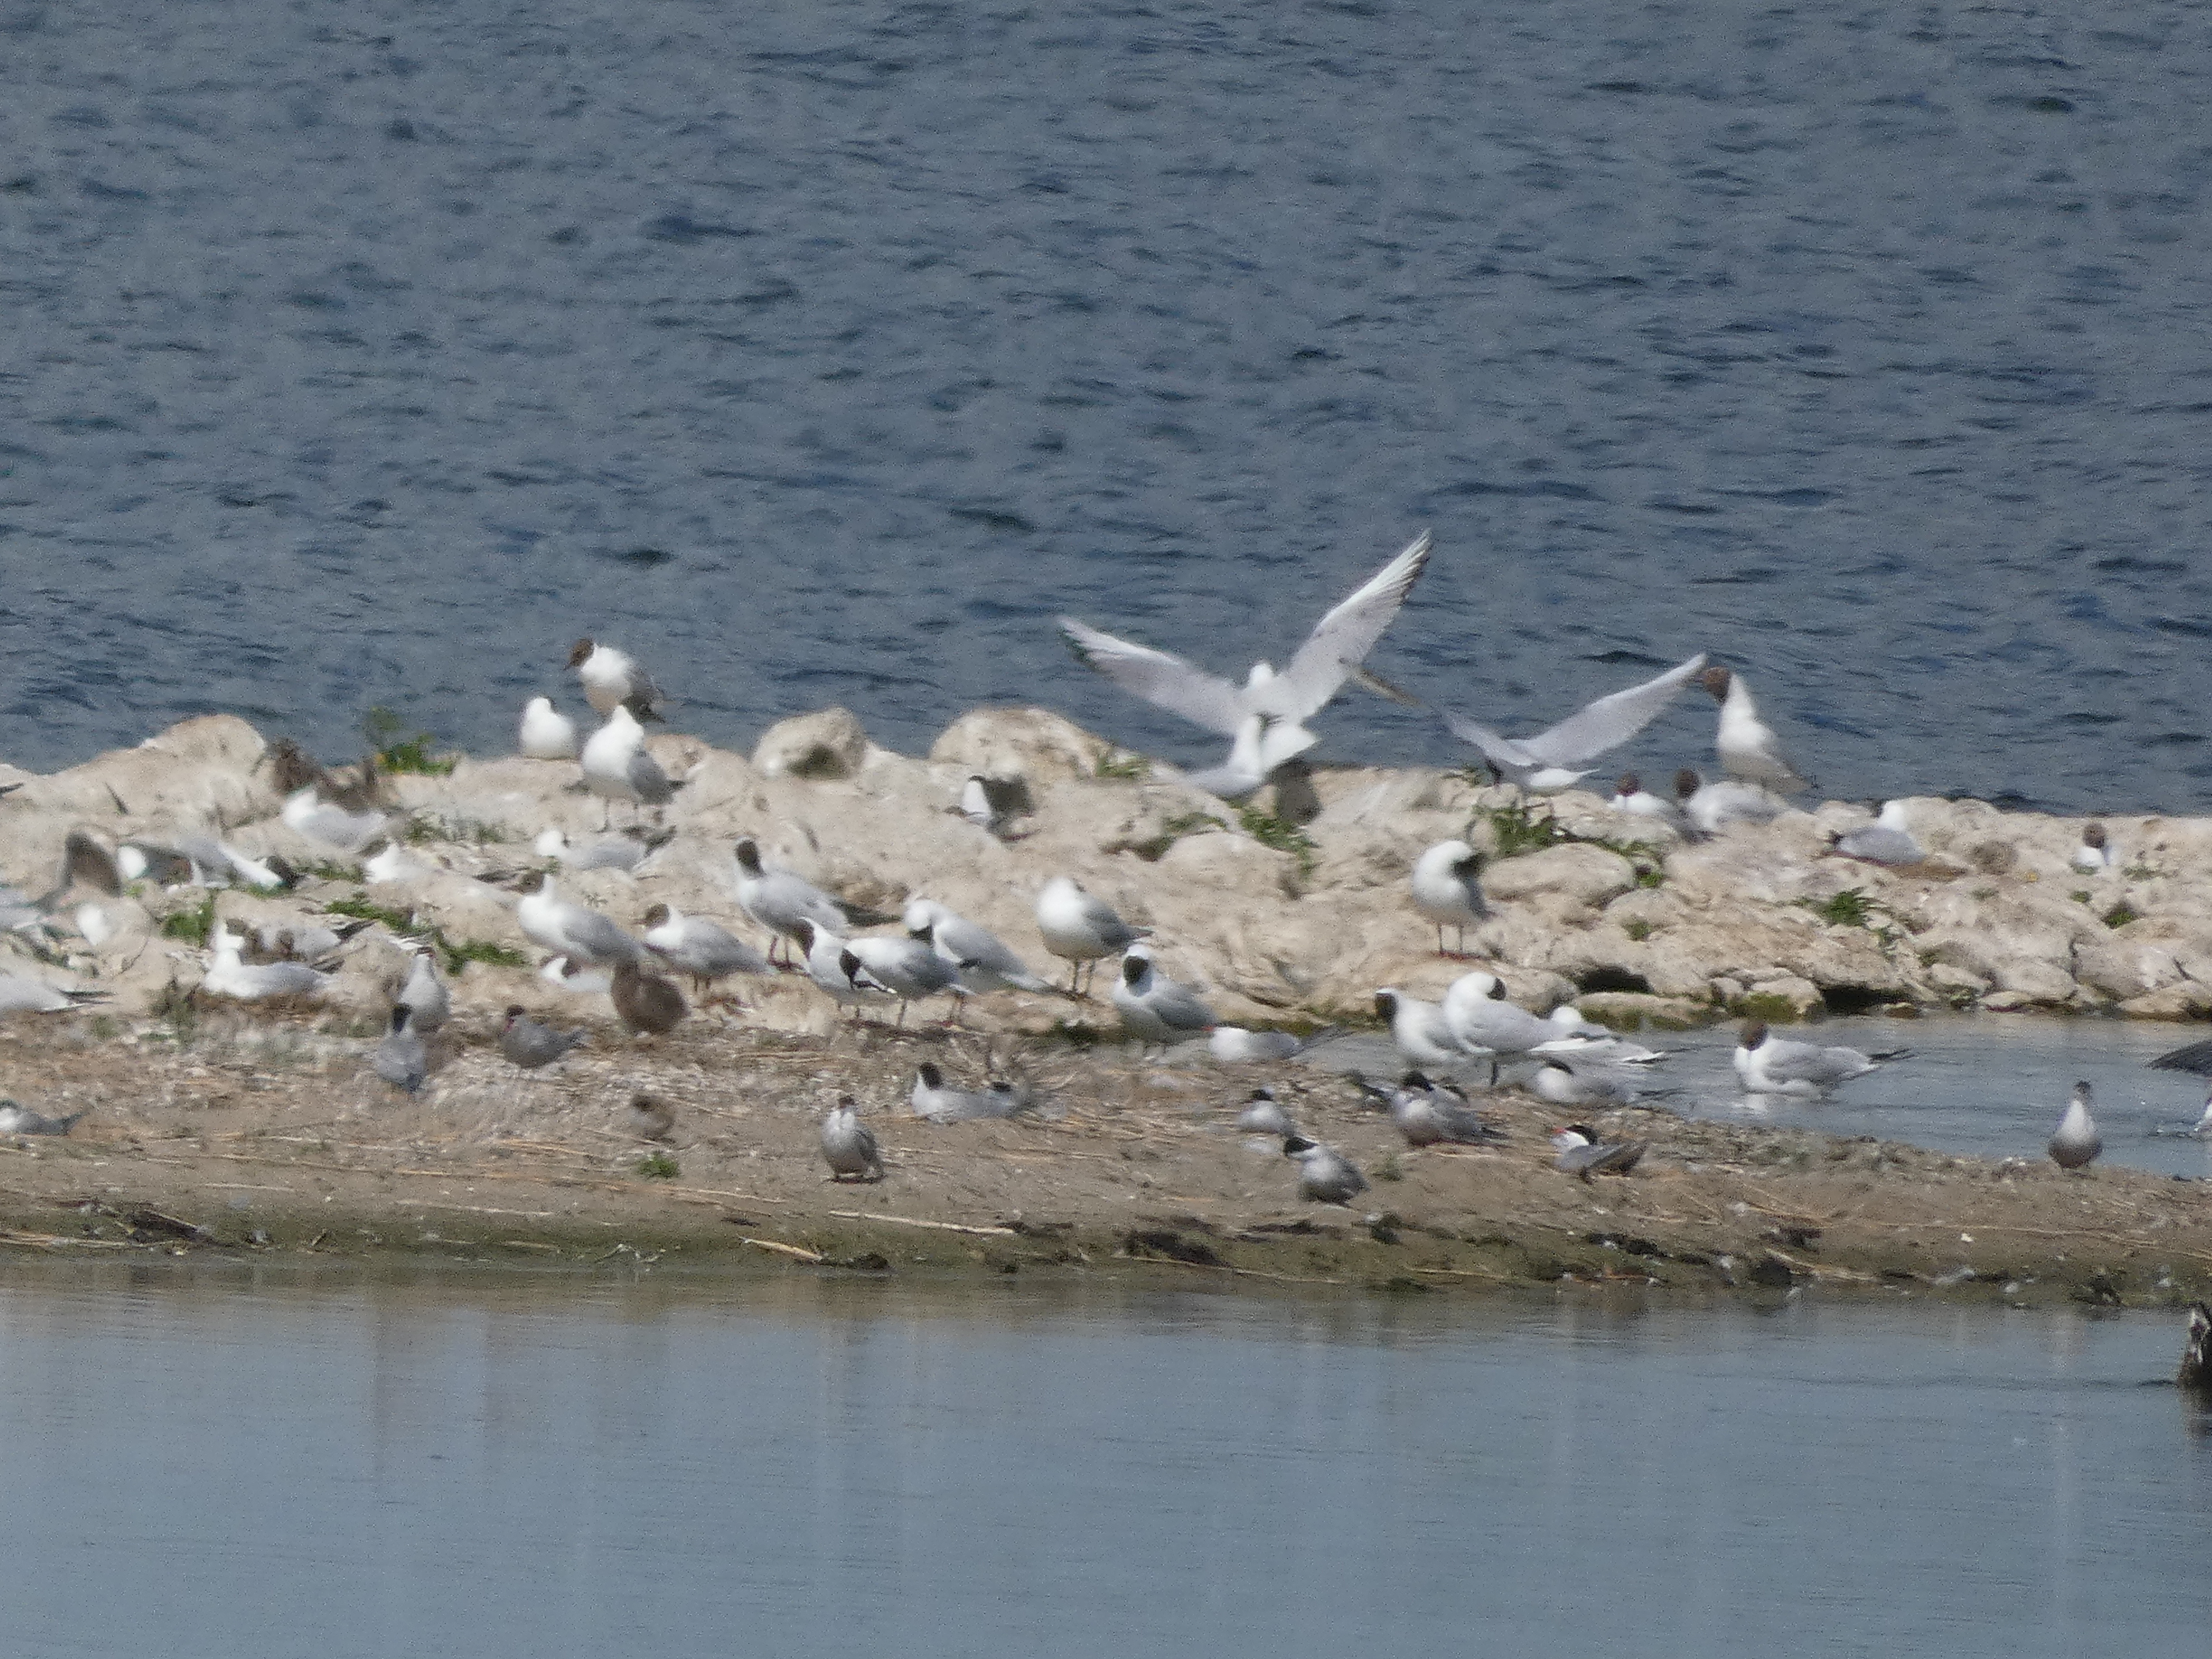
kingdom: Animalia
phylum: Chordata
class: Aves
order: Charadriiformes
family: Laridae
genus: Sterna
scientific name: Sterna hirundo
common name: Fjordterne
